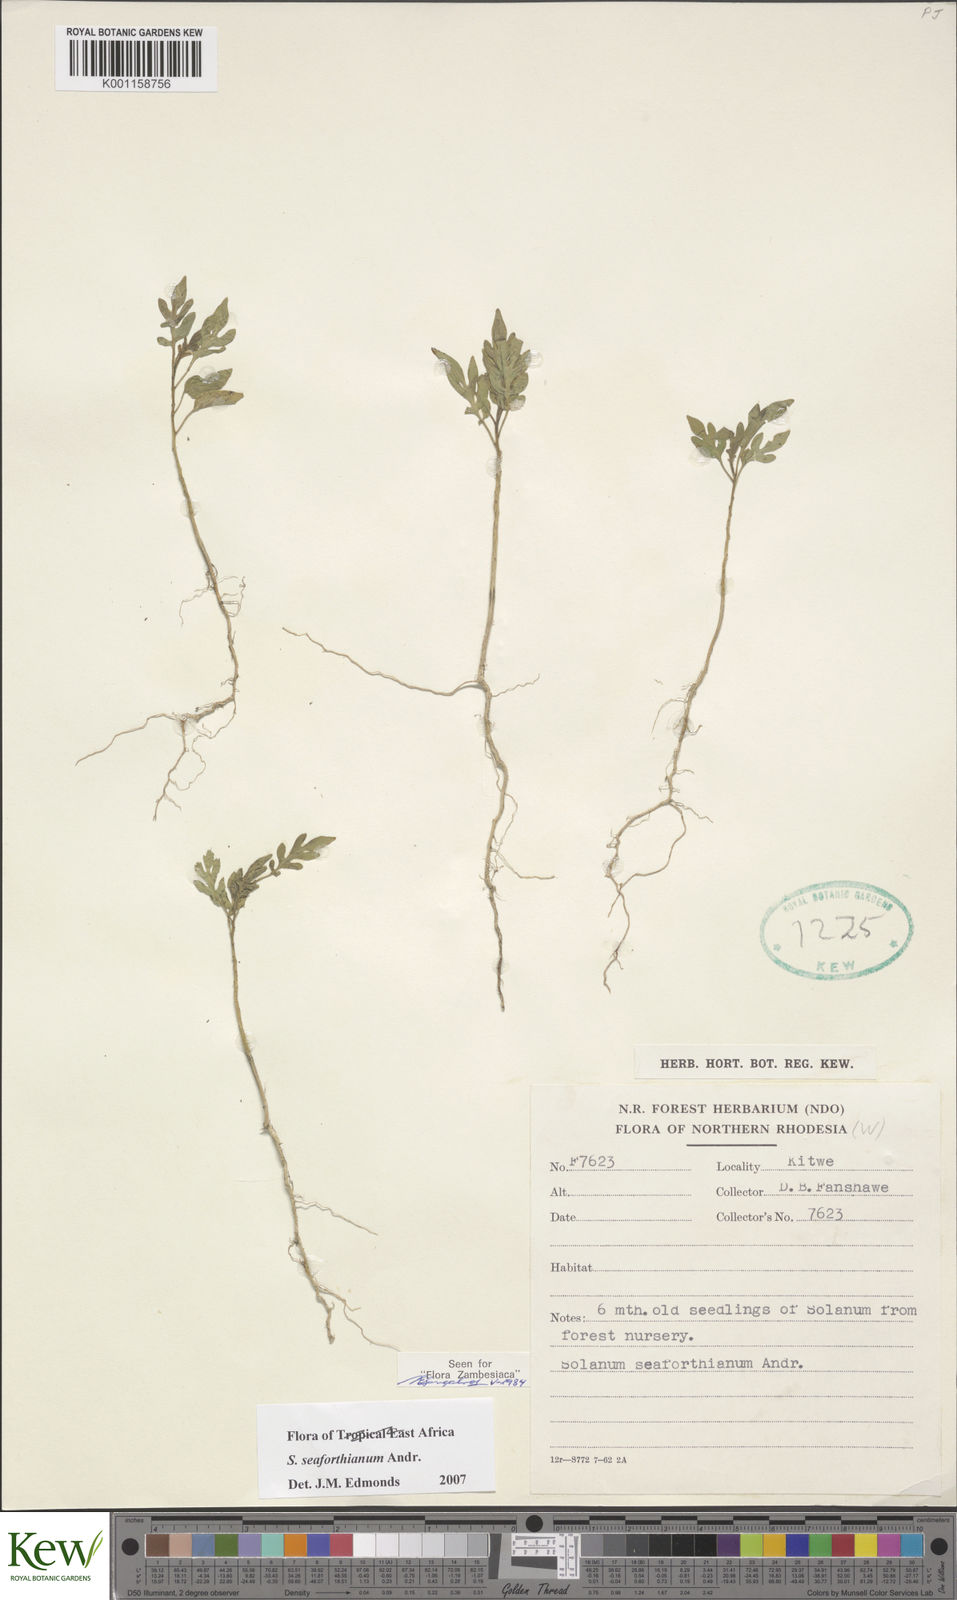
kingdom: Plantae
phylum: Tracheophyta
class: Magnoliopsida
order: Solanales
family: Solanaceae
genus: Solanum
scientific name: Solanum seaforthianum
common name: Brazilian nightshade
